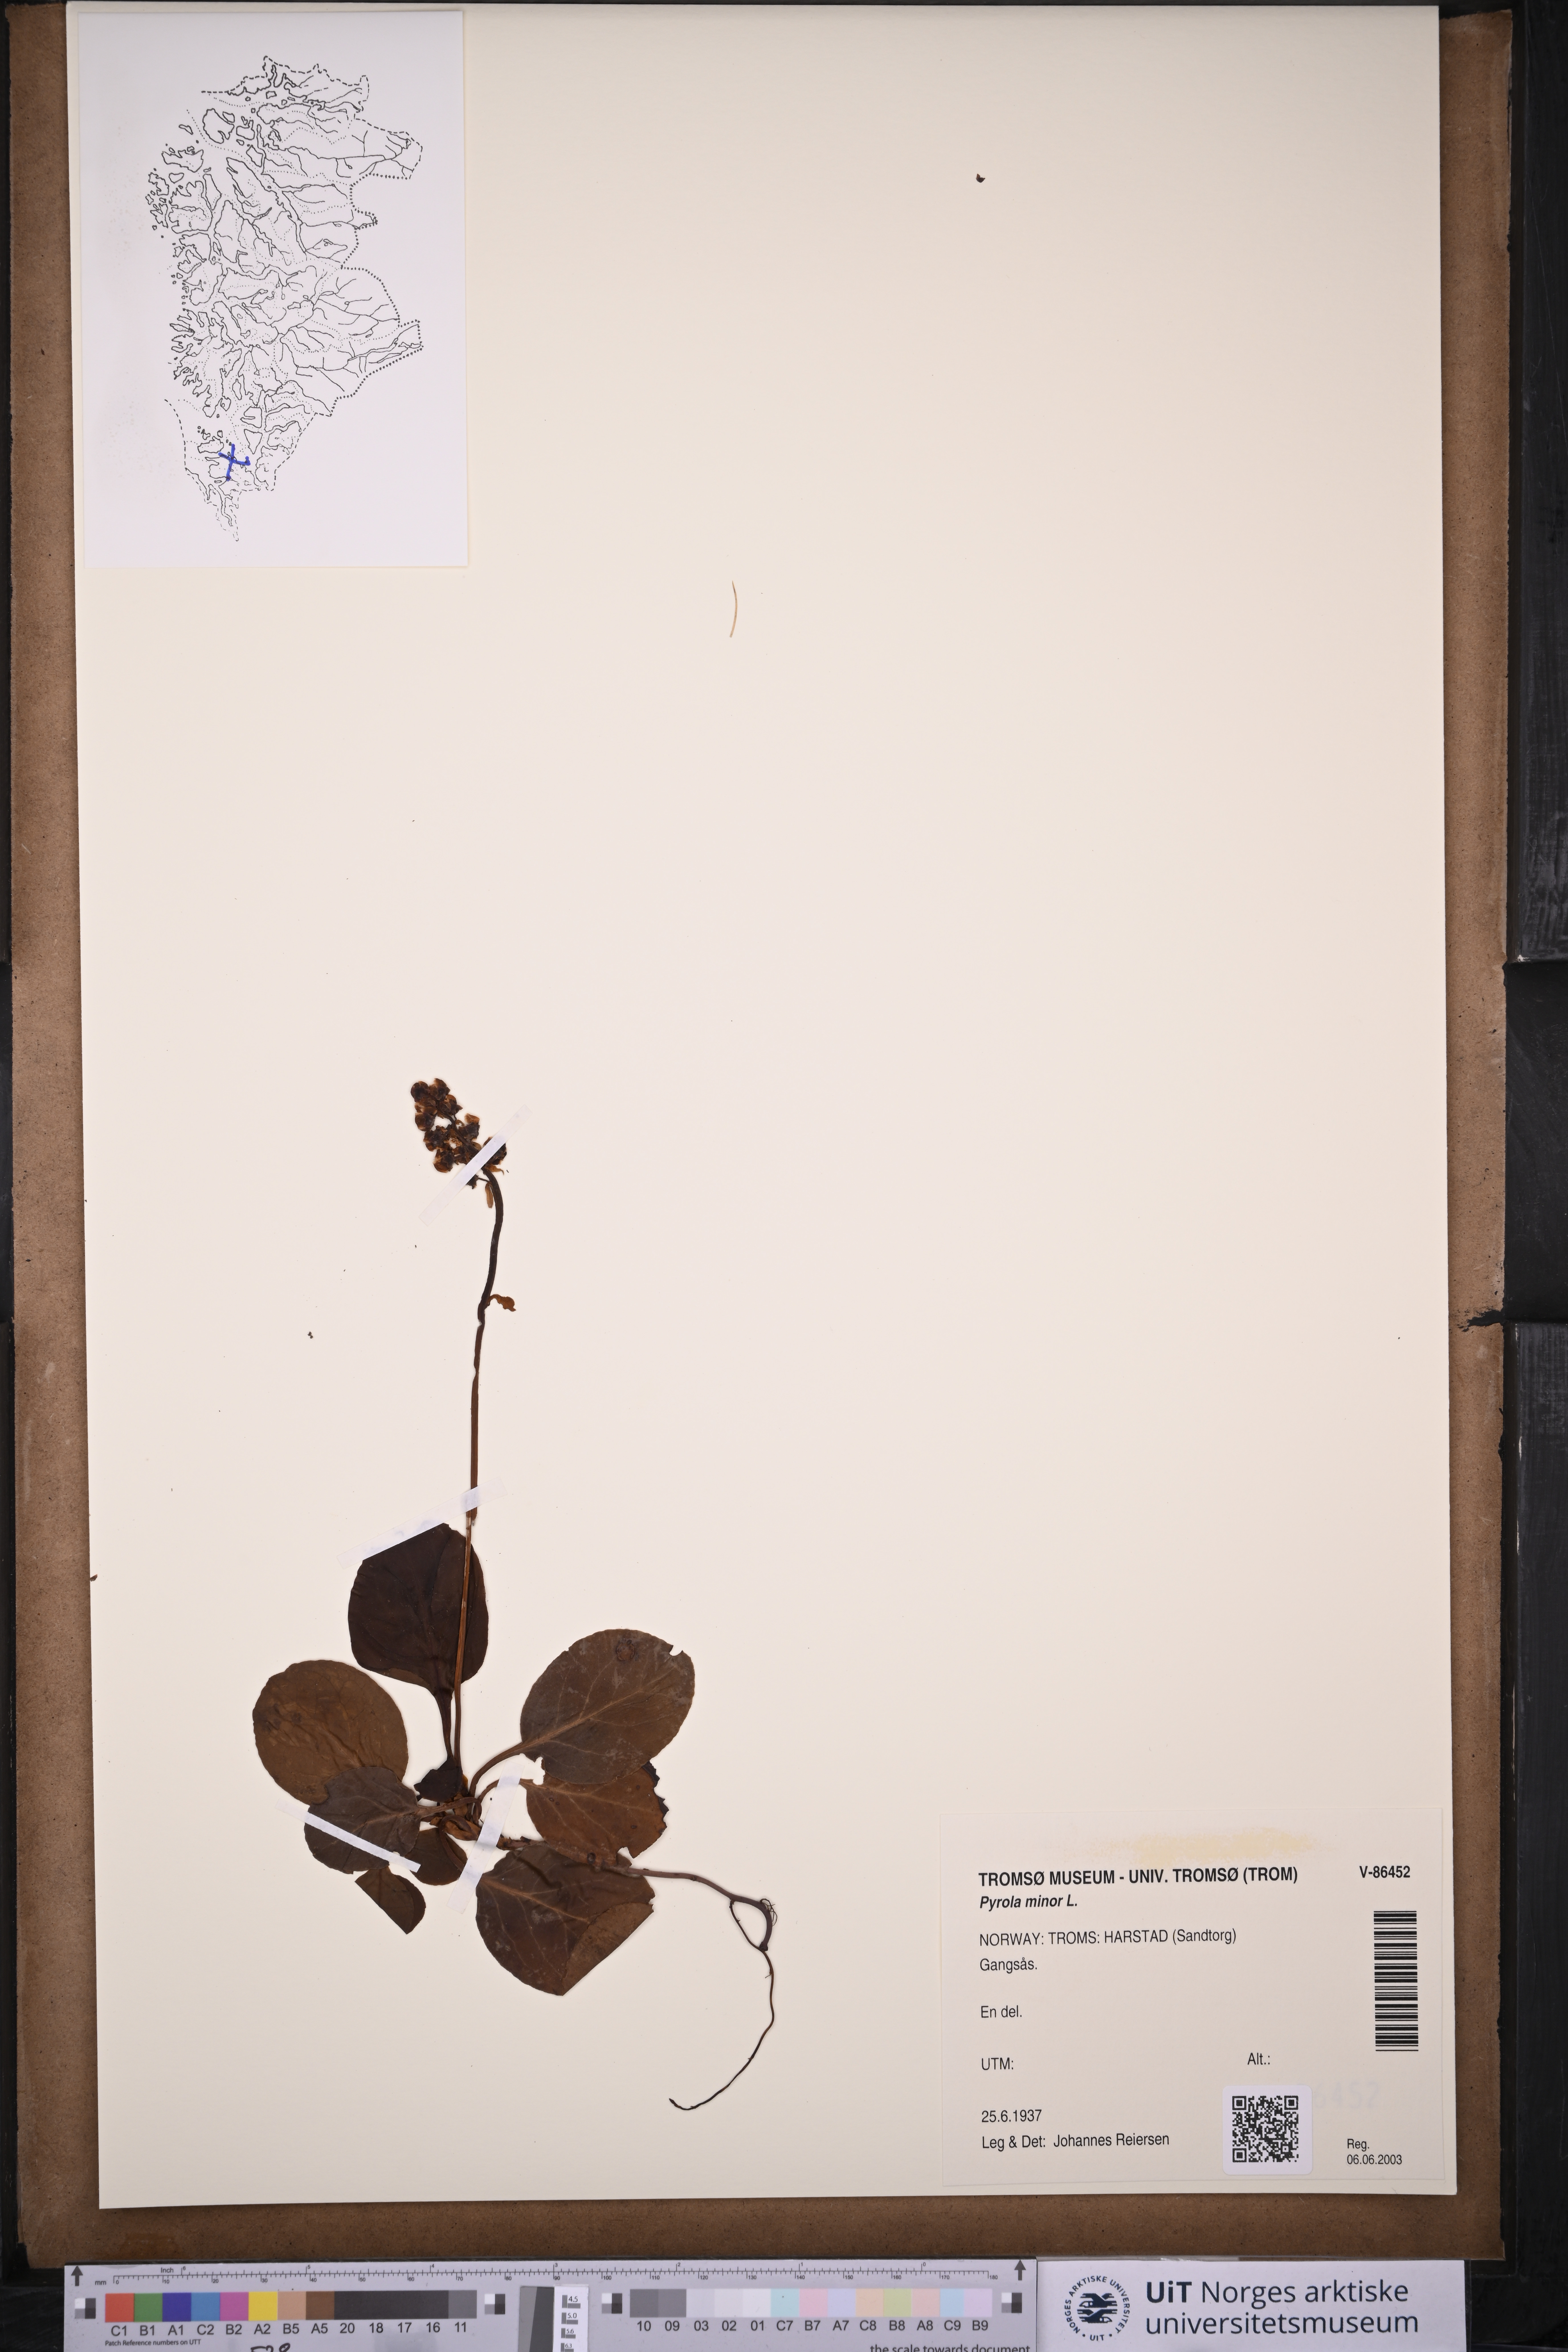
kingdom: Plantae
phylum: Tracheophyta
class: Magnoliopsida
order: Ericales
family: Ericaceae
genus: Pyrola
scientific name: Pyrola minor
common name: Common wintergreen
